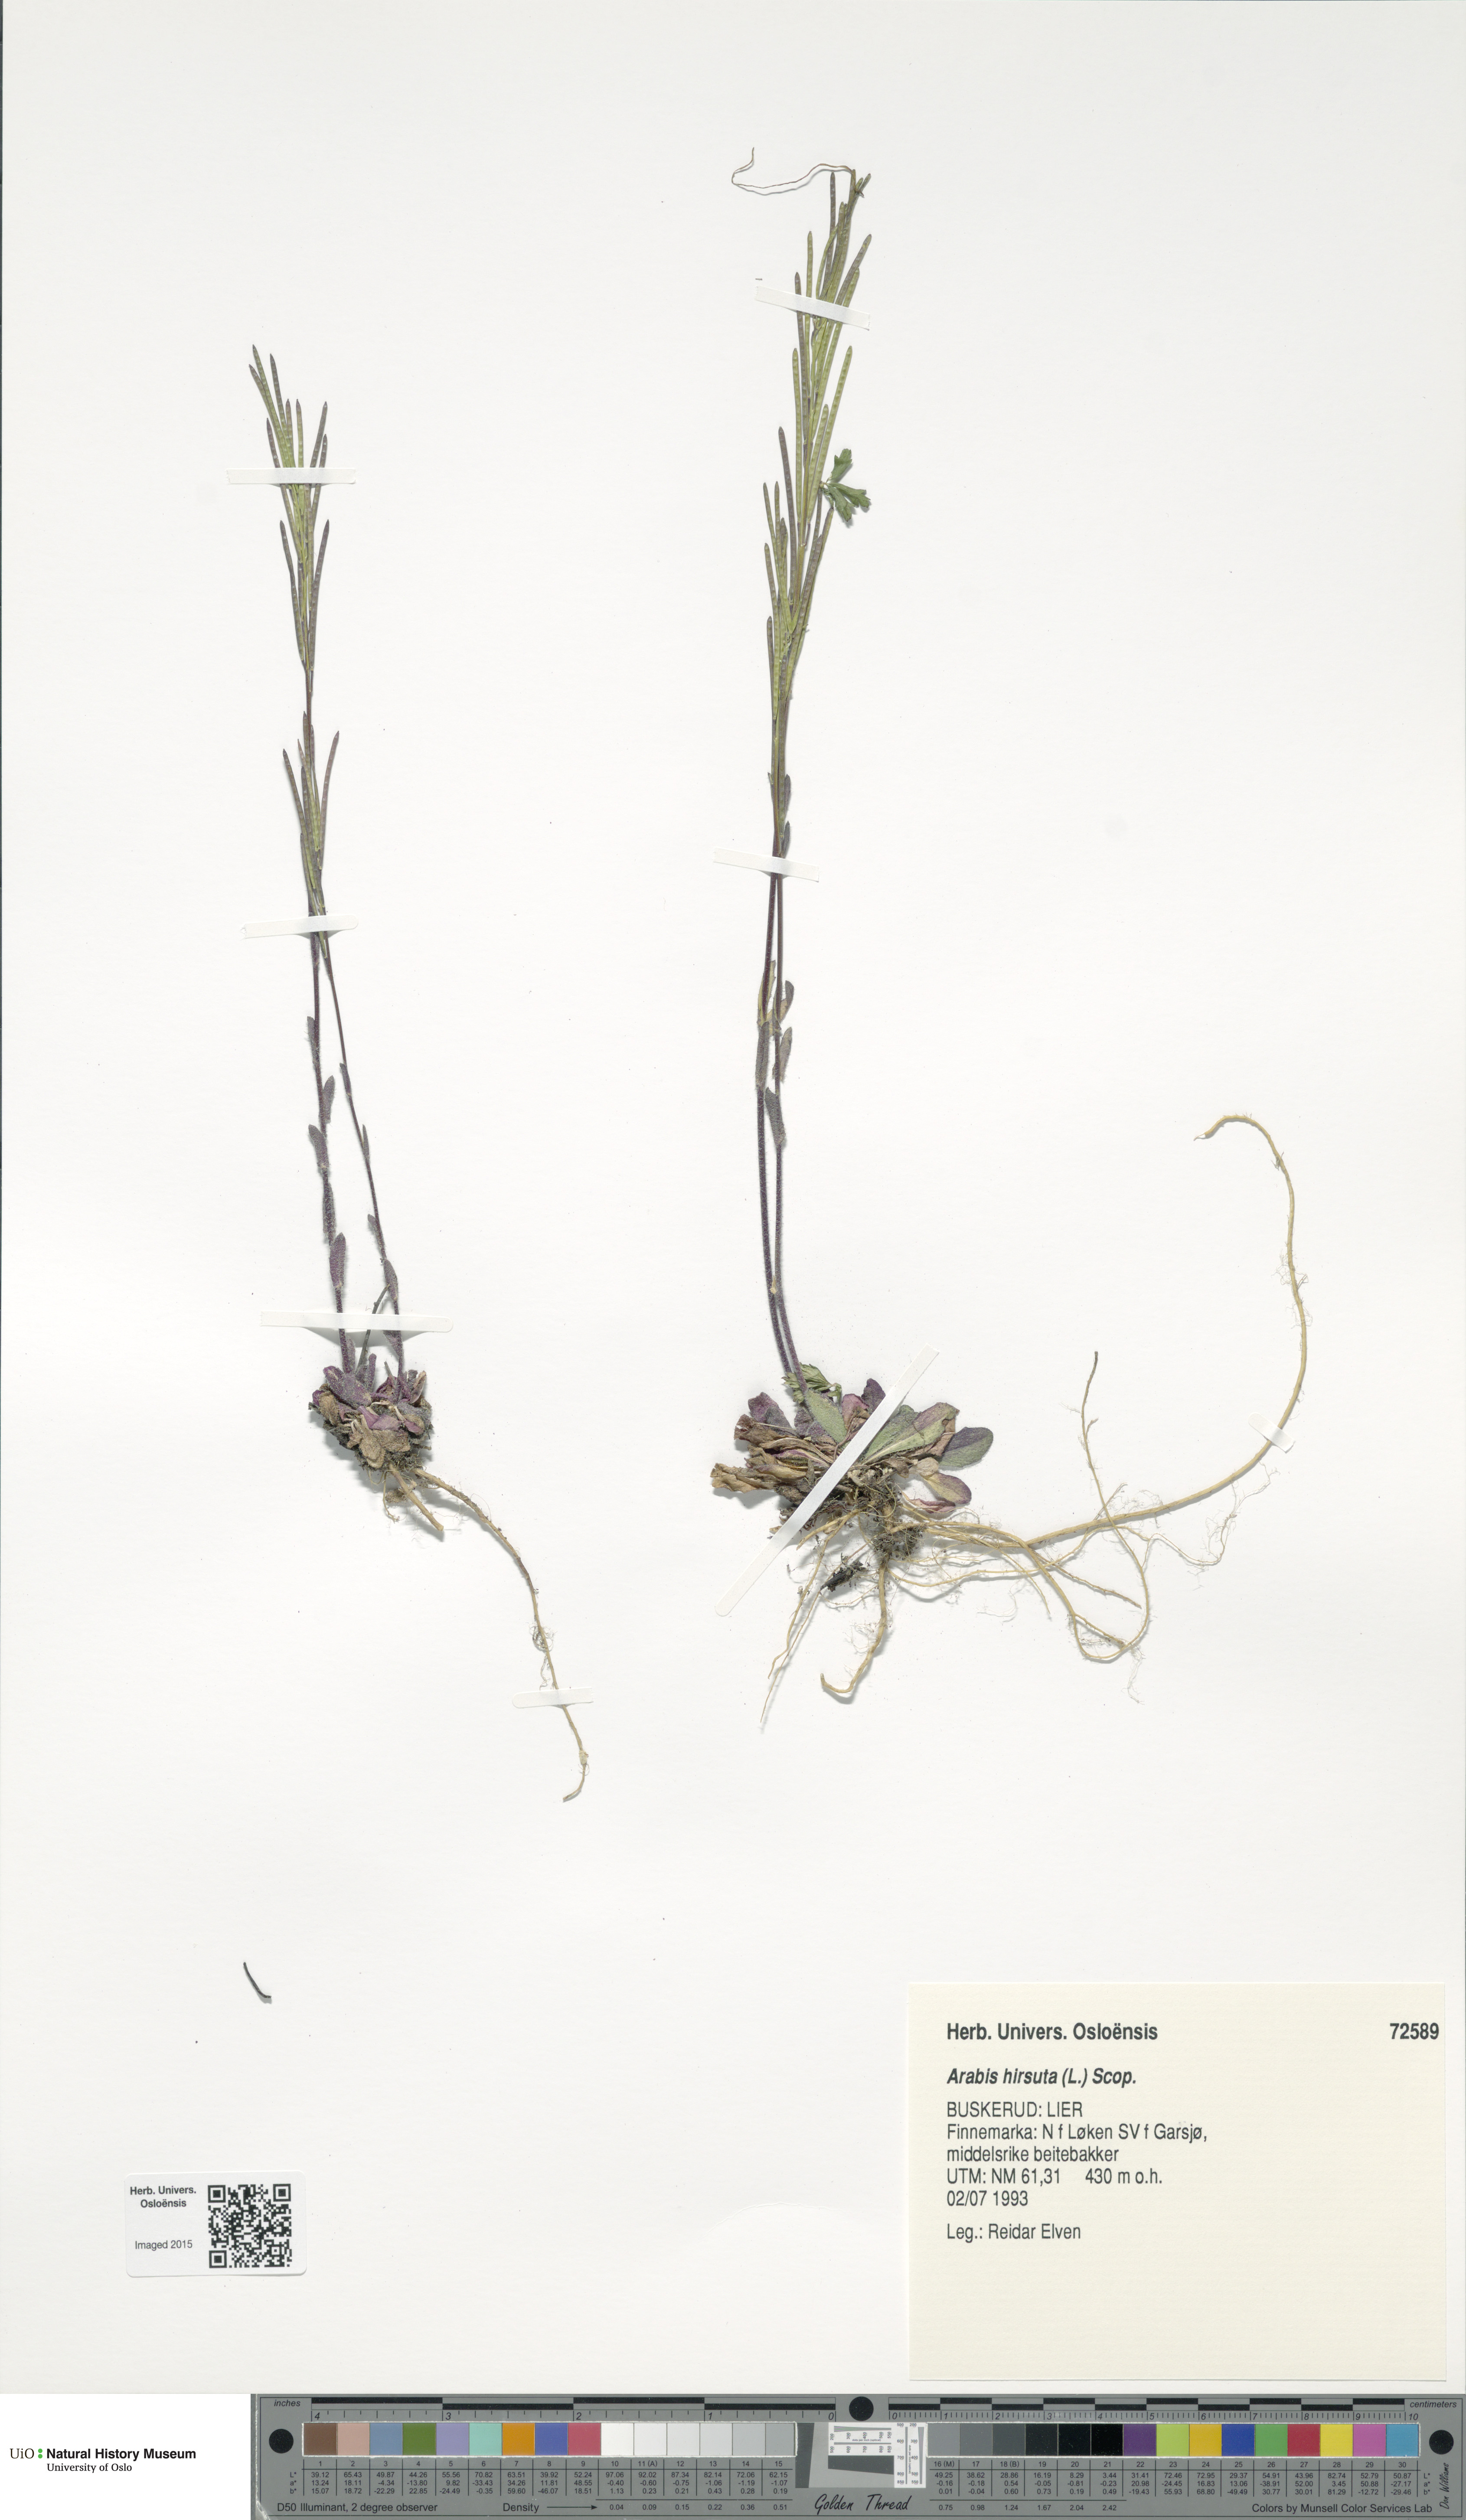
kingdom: Plantae
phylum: Tracheophyta
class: Magnoliopsida
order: Brassicales
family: Brassicaceae
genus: Arabis
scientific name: Arabis hirsuta
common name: Hairy rock-cress
